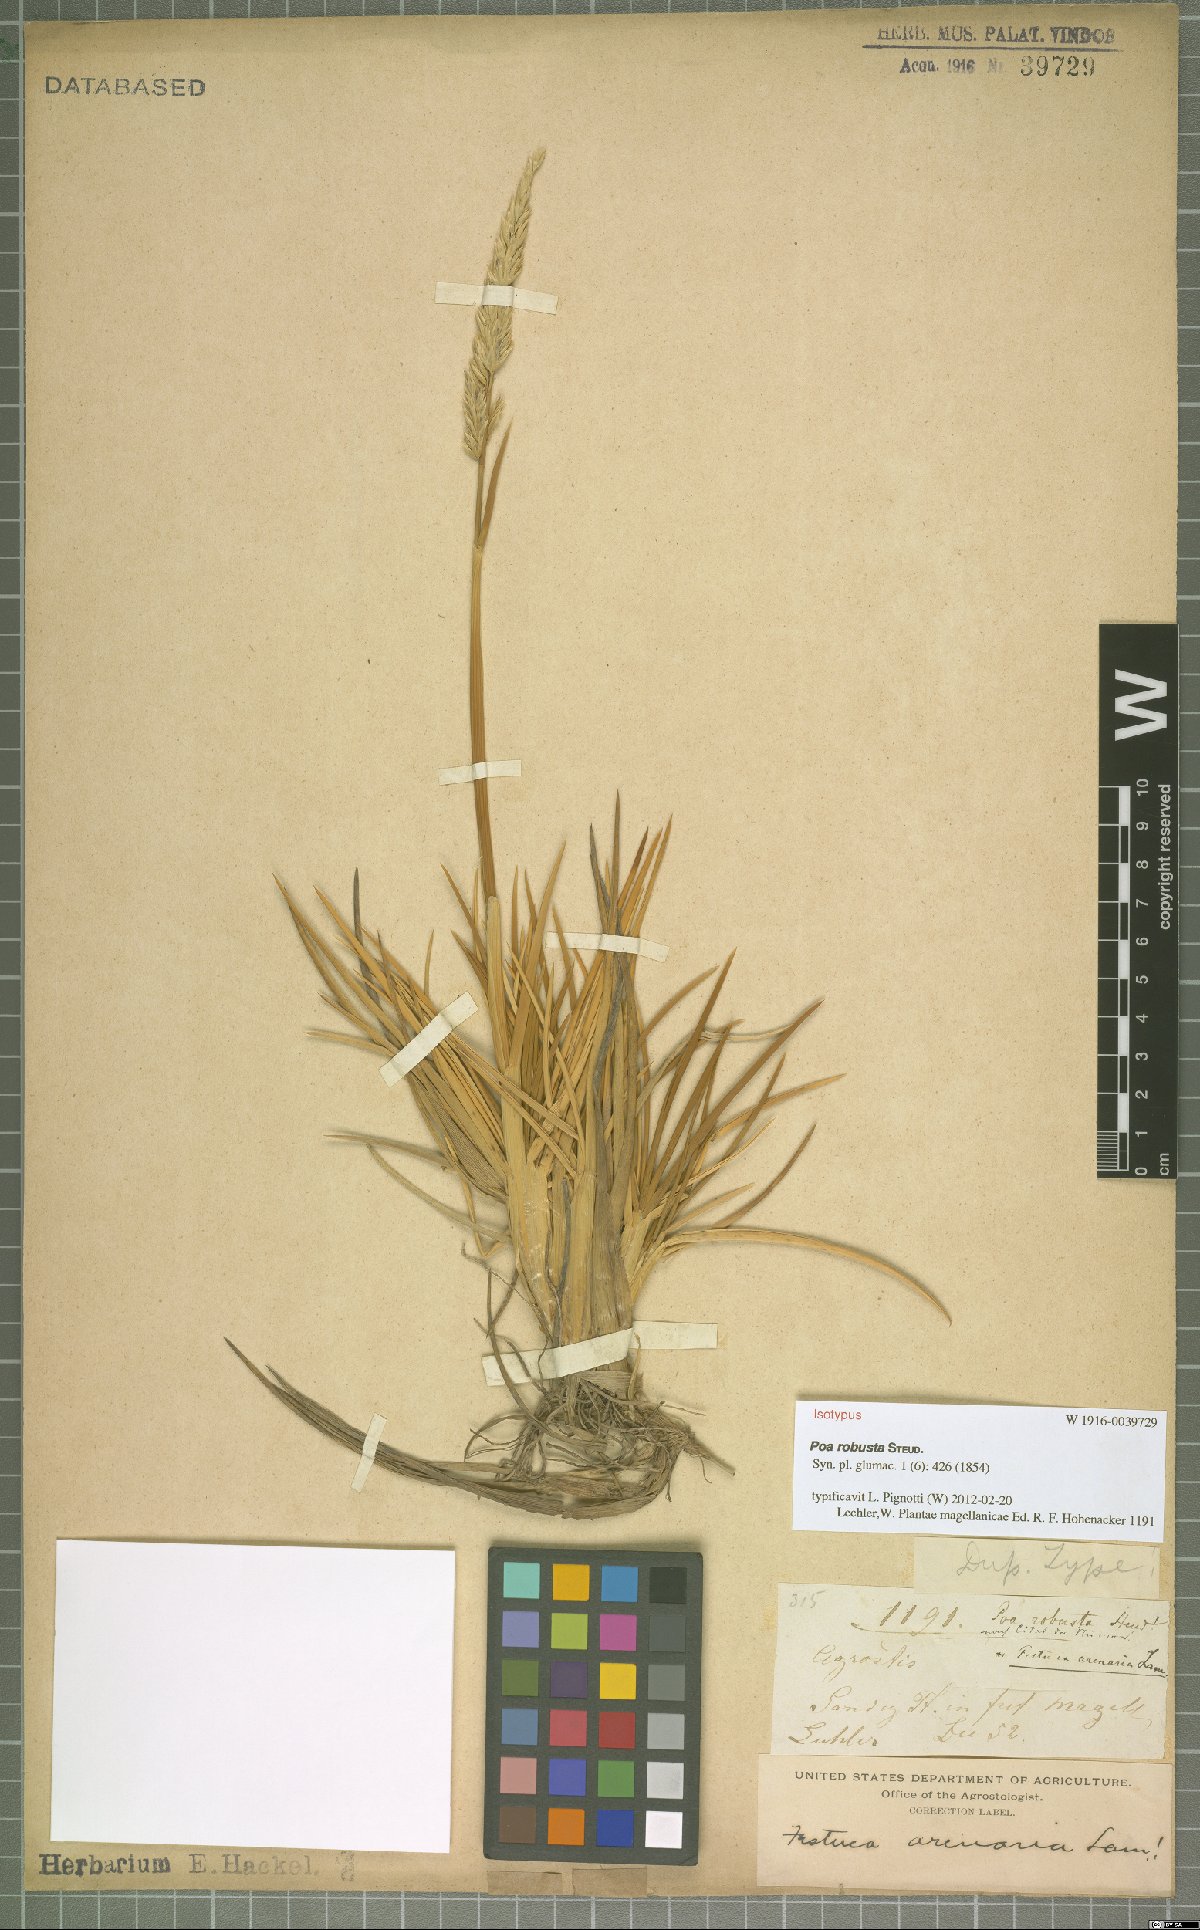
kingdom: Plantae
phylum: Tracheophyta
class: Liliopsida
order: Poales
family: Poaceae
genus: Nicoraepoa
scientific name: Nicoraepoa robusta
